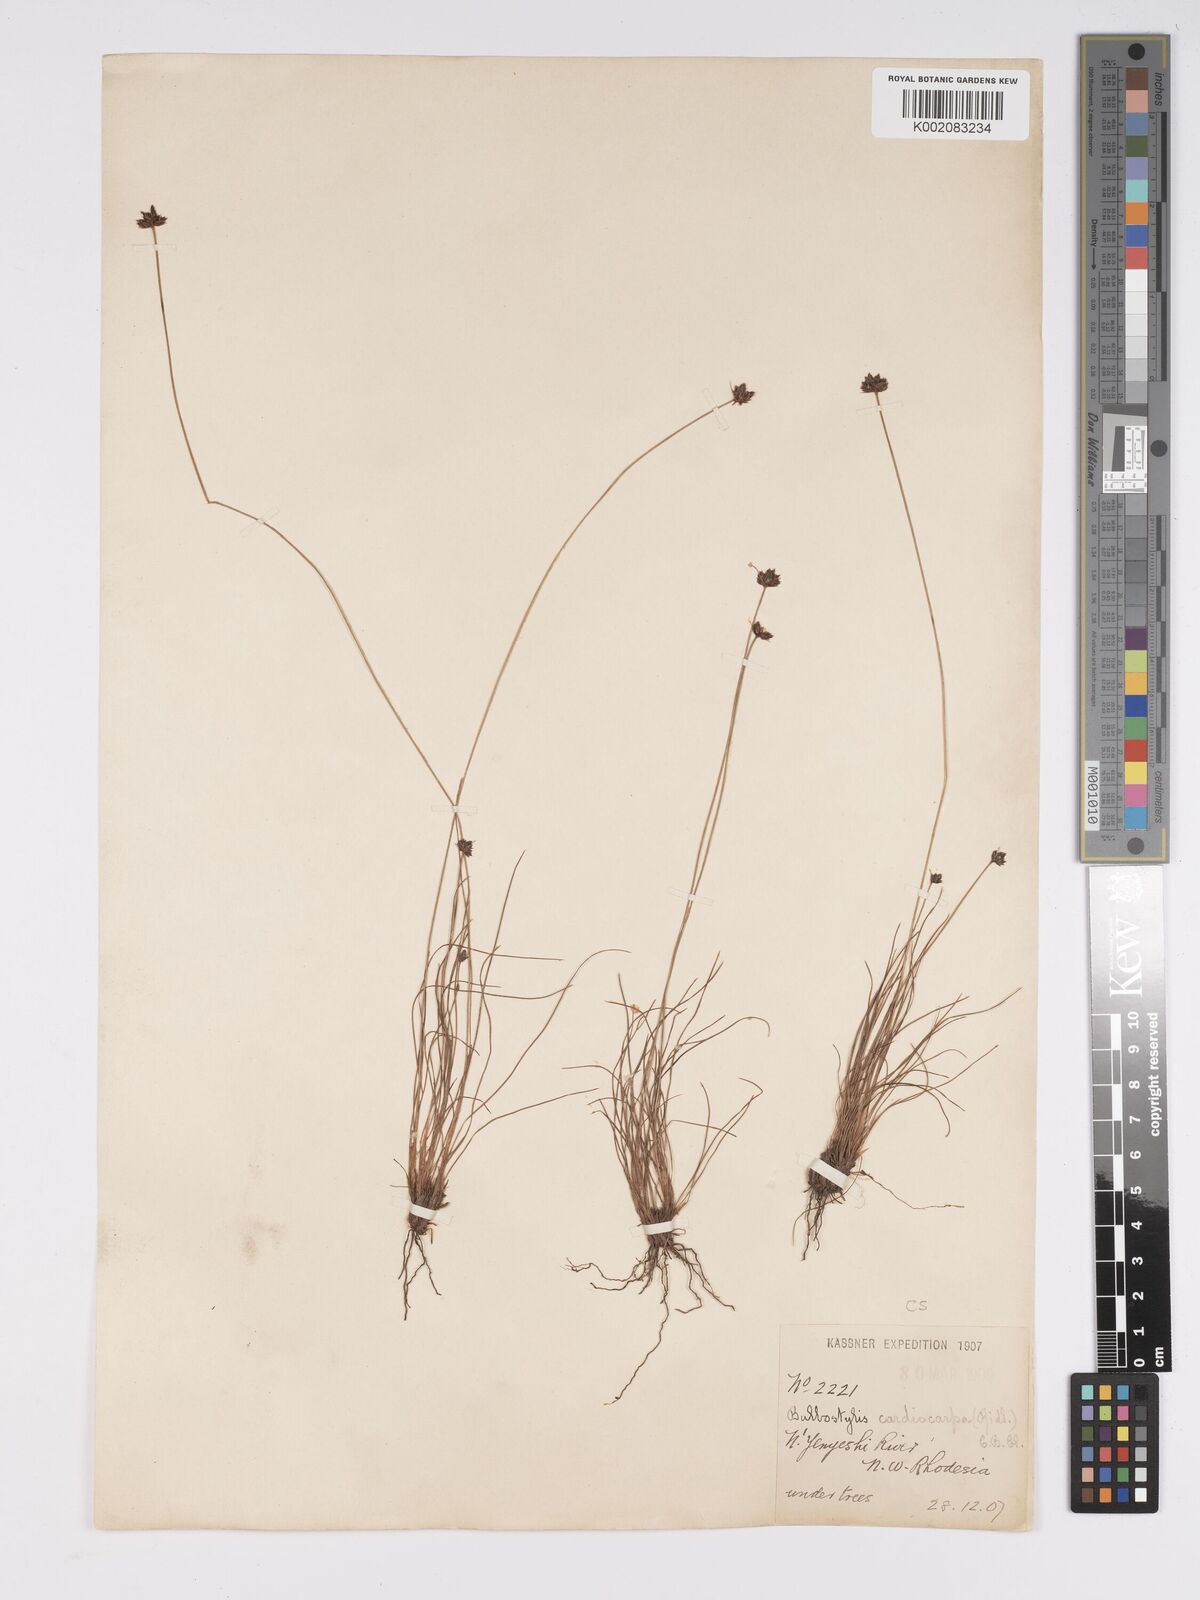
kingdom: Plantae
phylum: Tracheophyta
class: Liliopsida
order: Poales
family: Cyperaceae
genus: Bulbostylis
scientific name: Bulbostylis filamentosa
